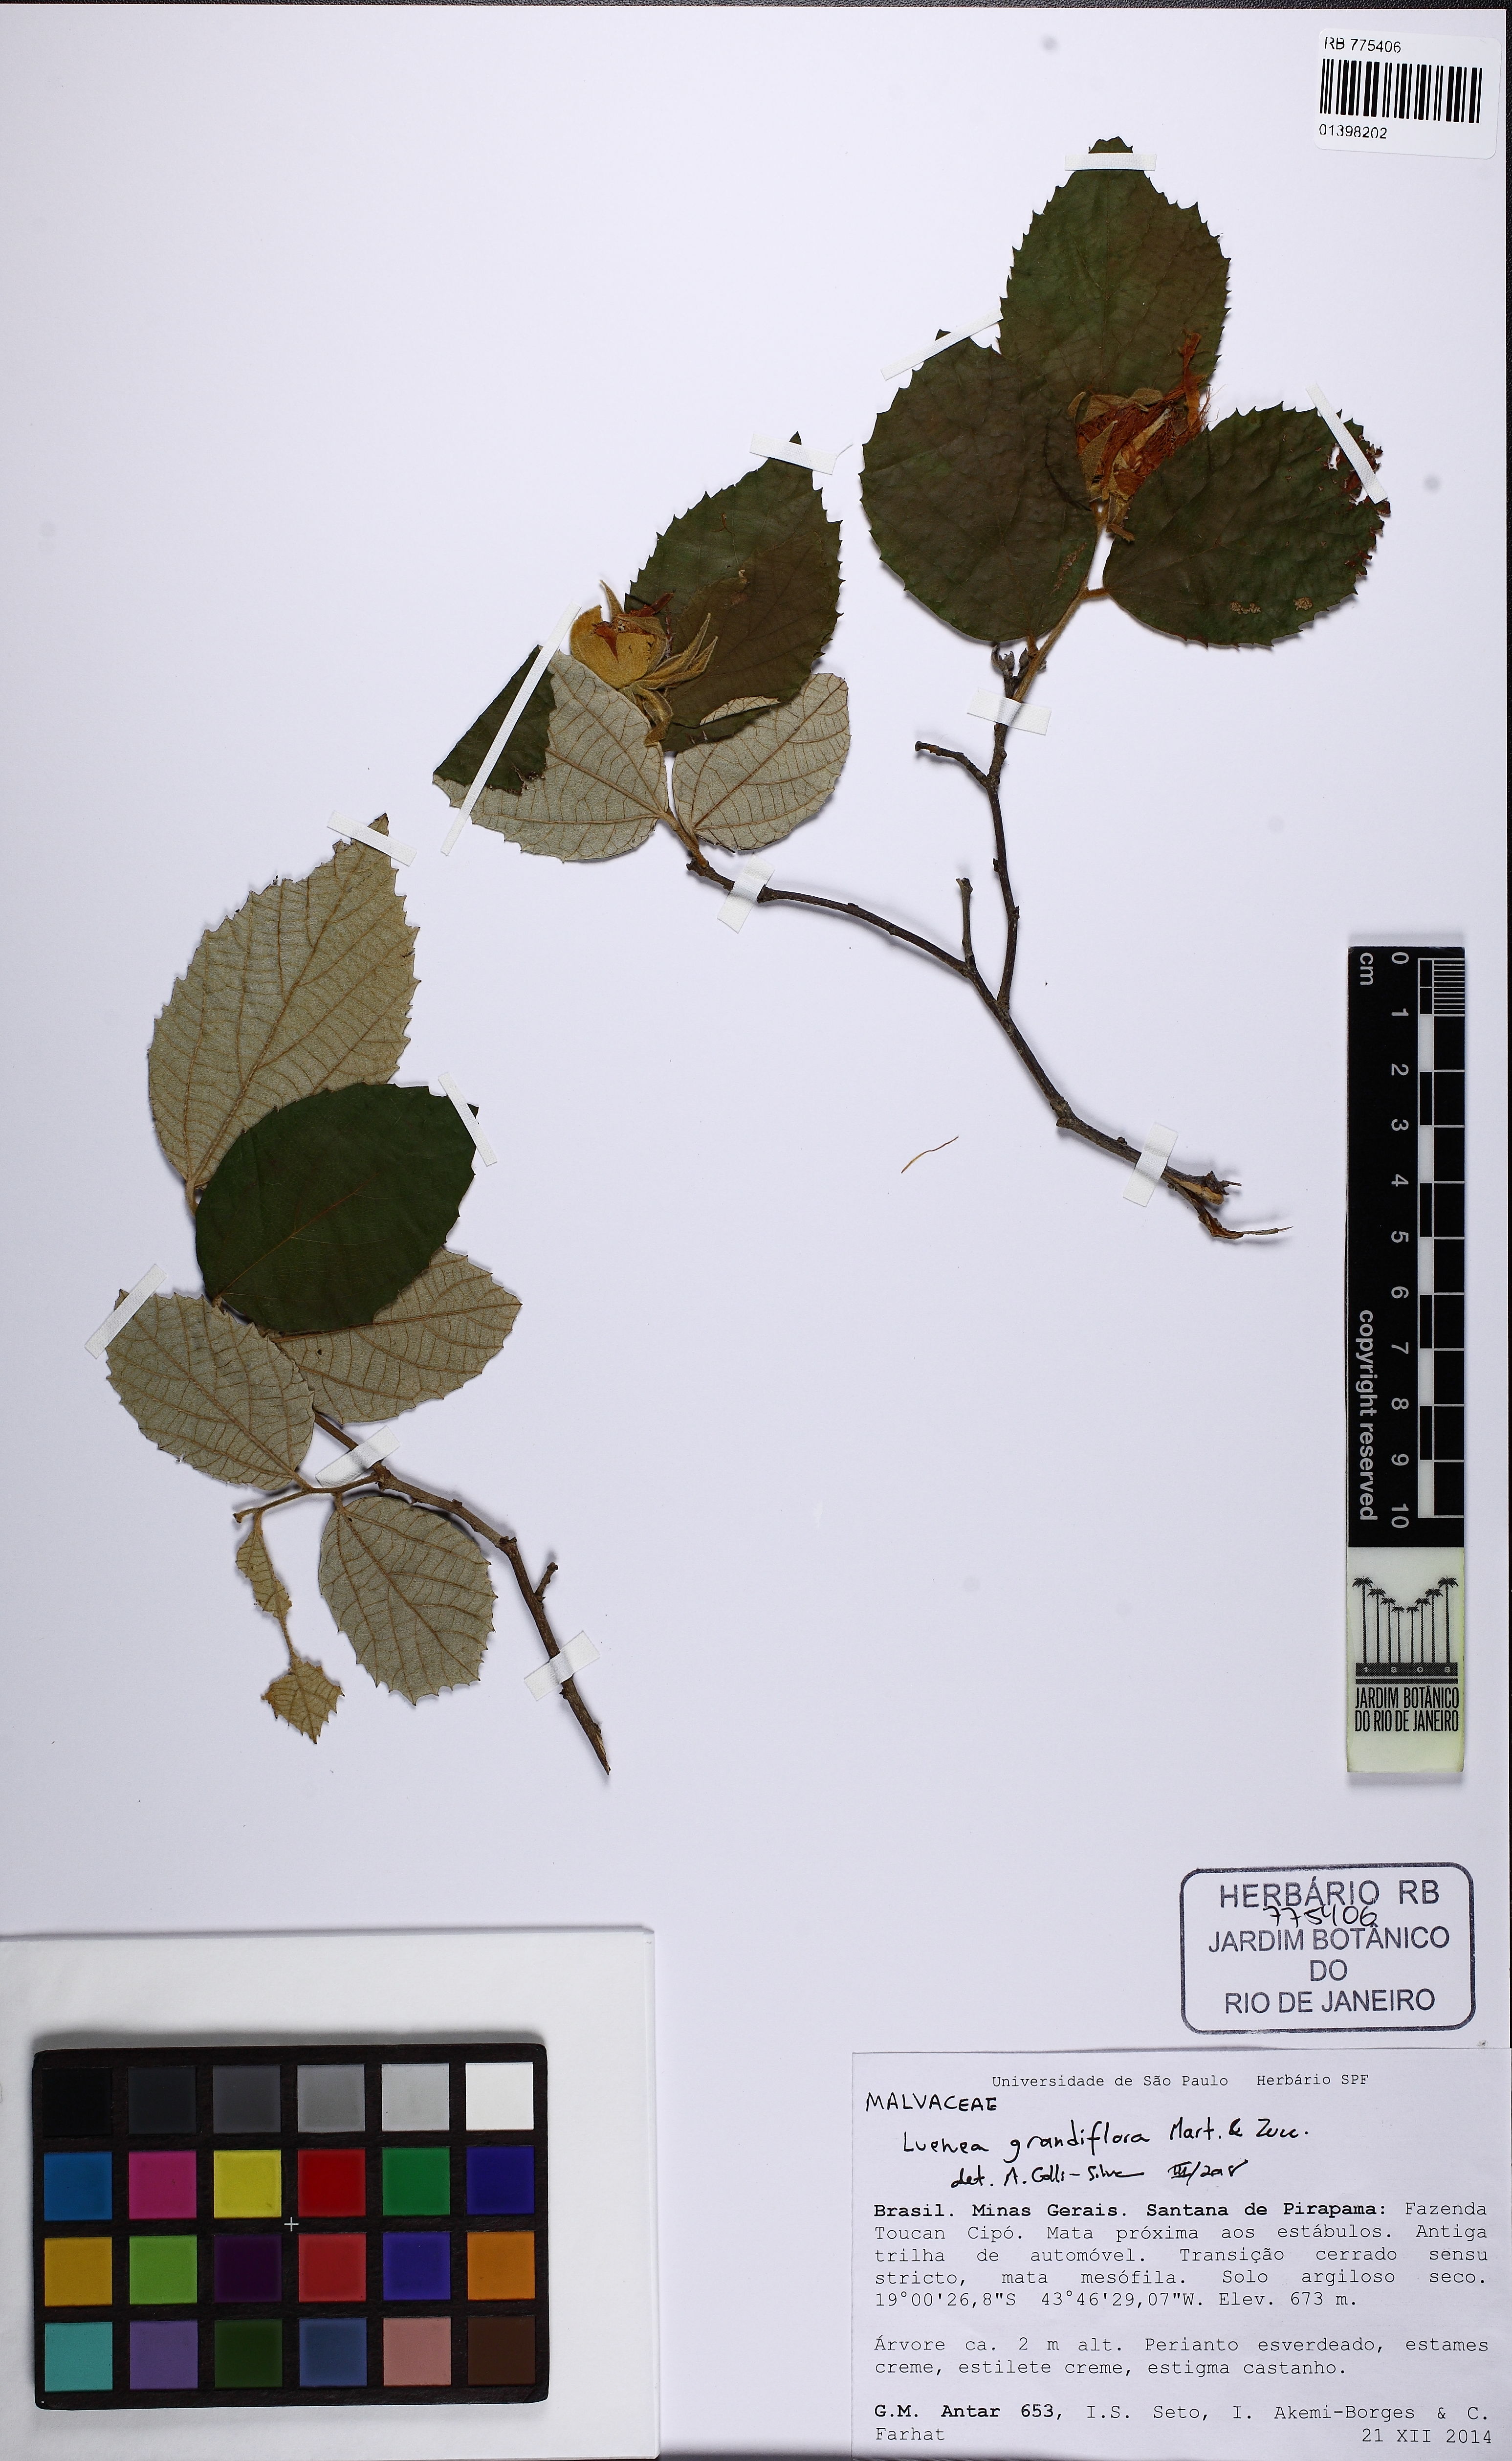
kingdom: Plantae
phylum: Tracheophyta
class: Magnoliopsida
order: Malvales
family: Malvaceae
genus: Luehea
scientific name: Luehea candicans
